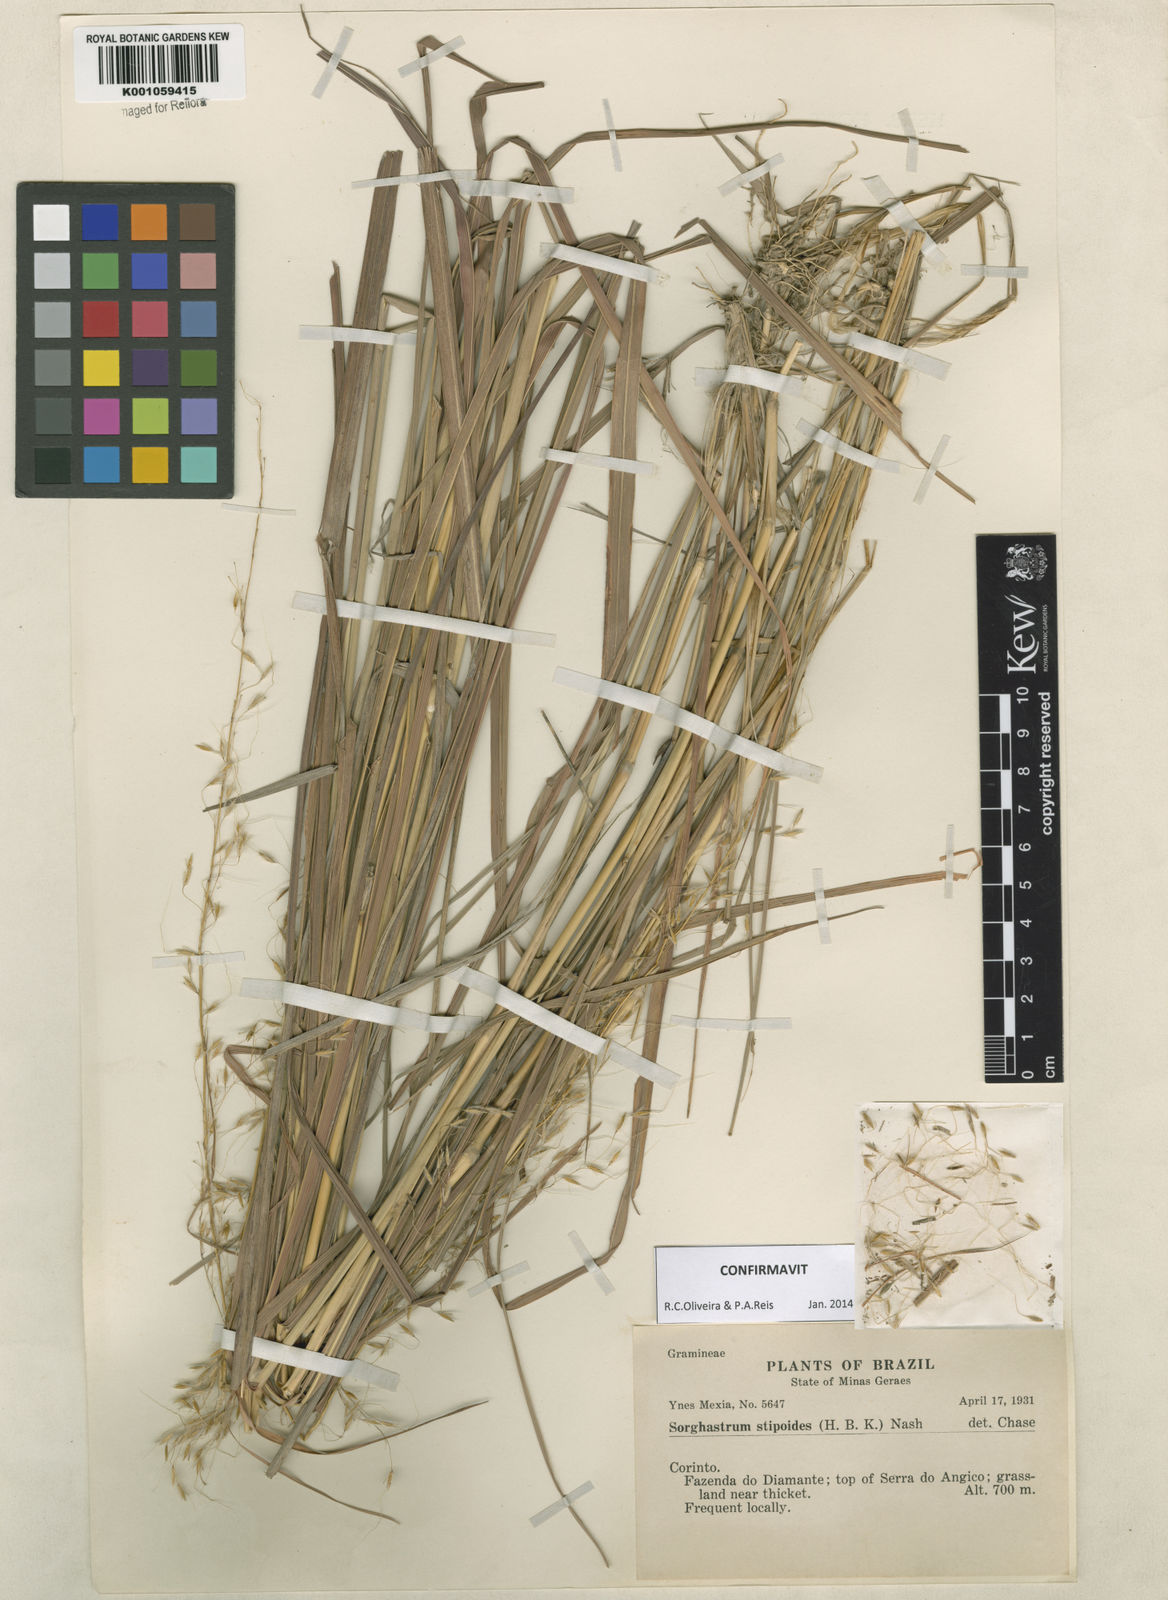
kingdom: Plantae
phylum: Tracheophyta
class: Liliopsida
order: Poales
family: Poaceae
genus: Sorghastrum
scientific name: Sorghastrum stipoides
